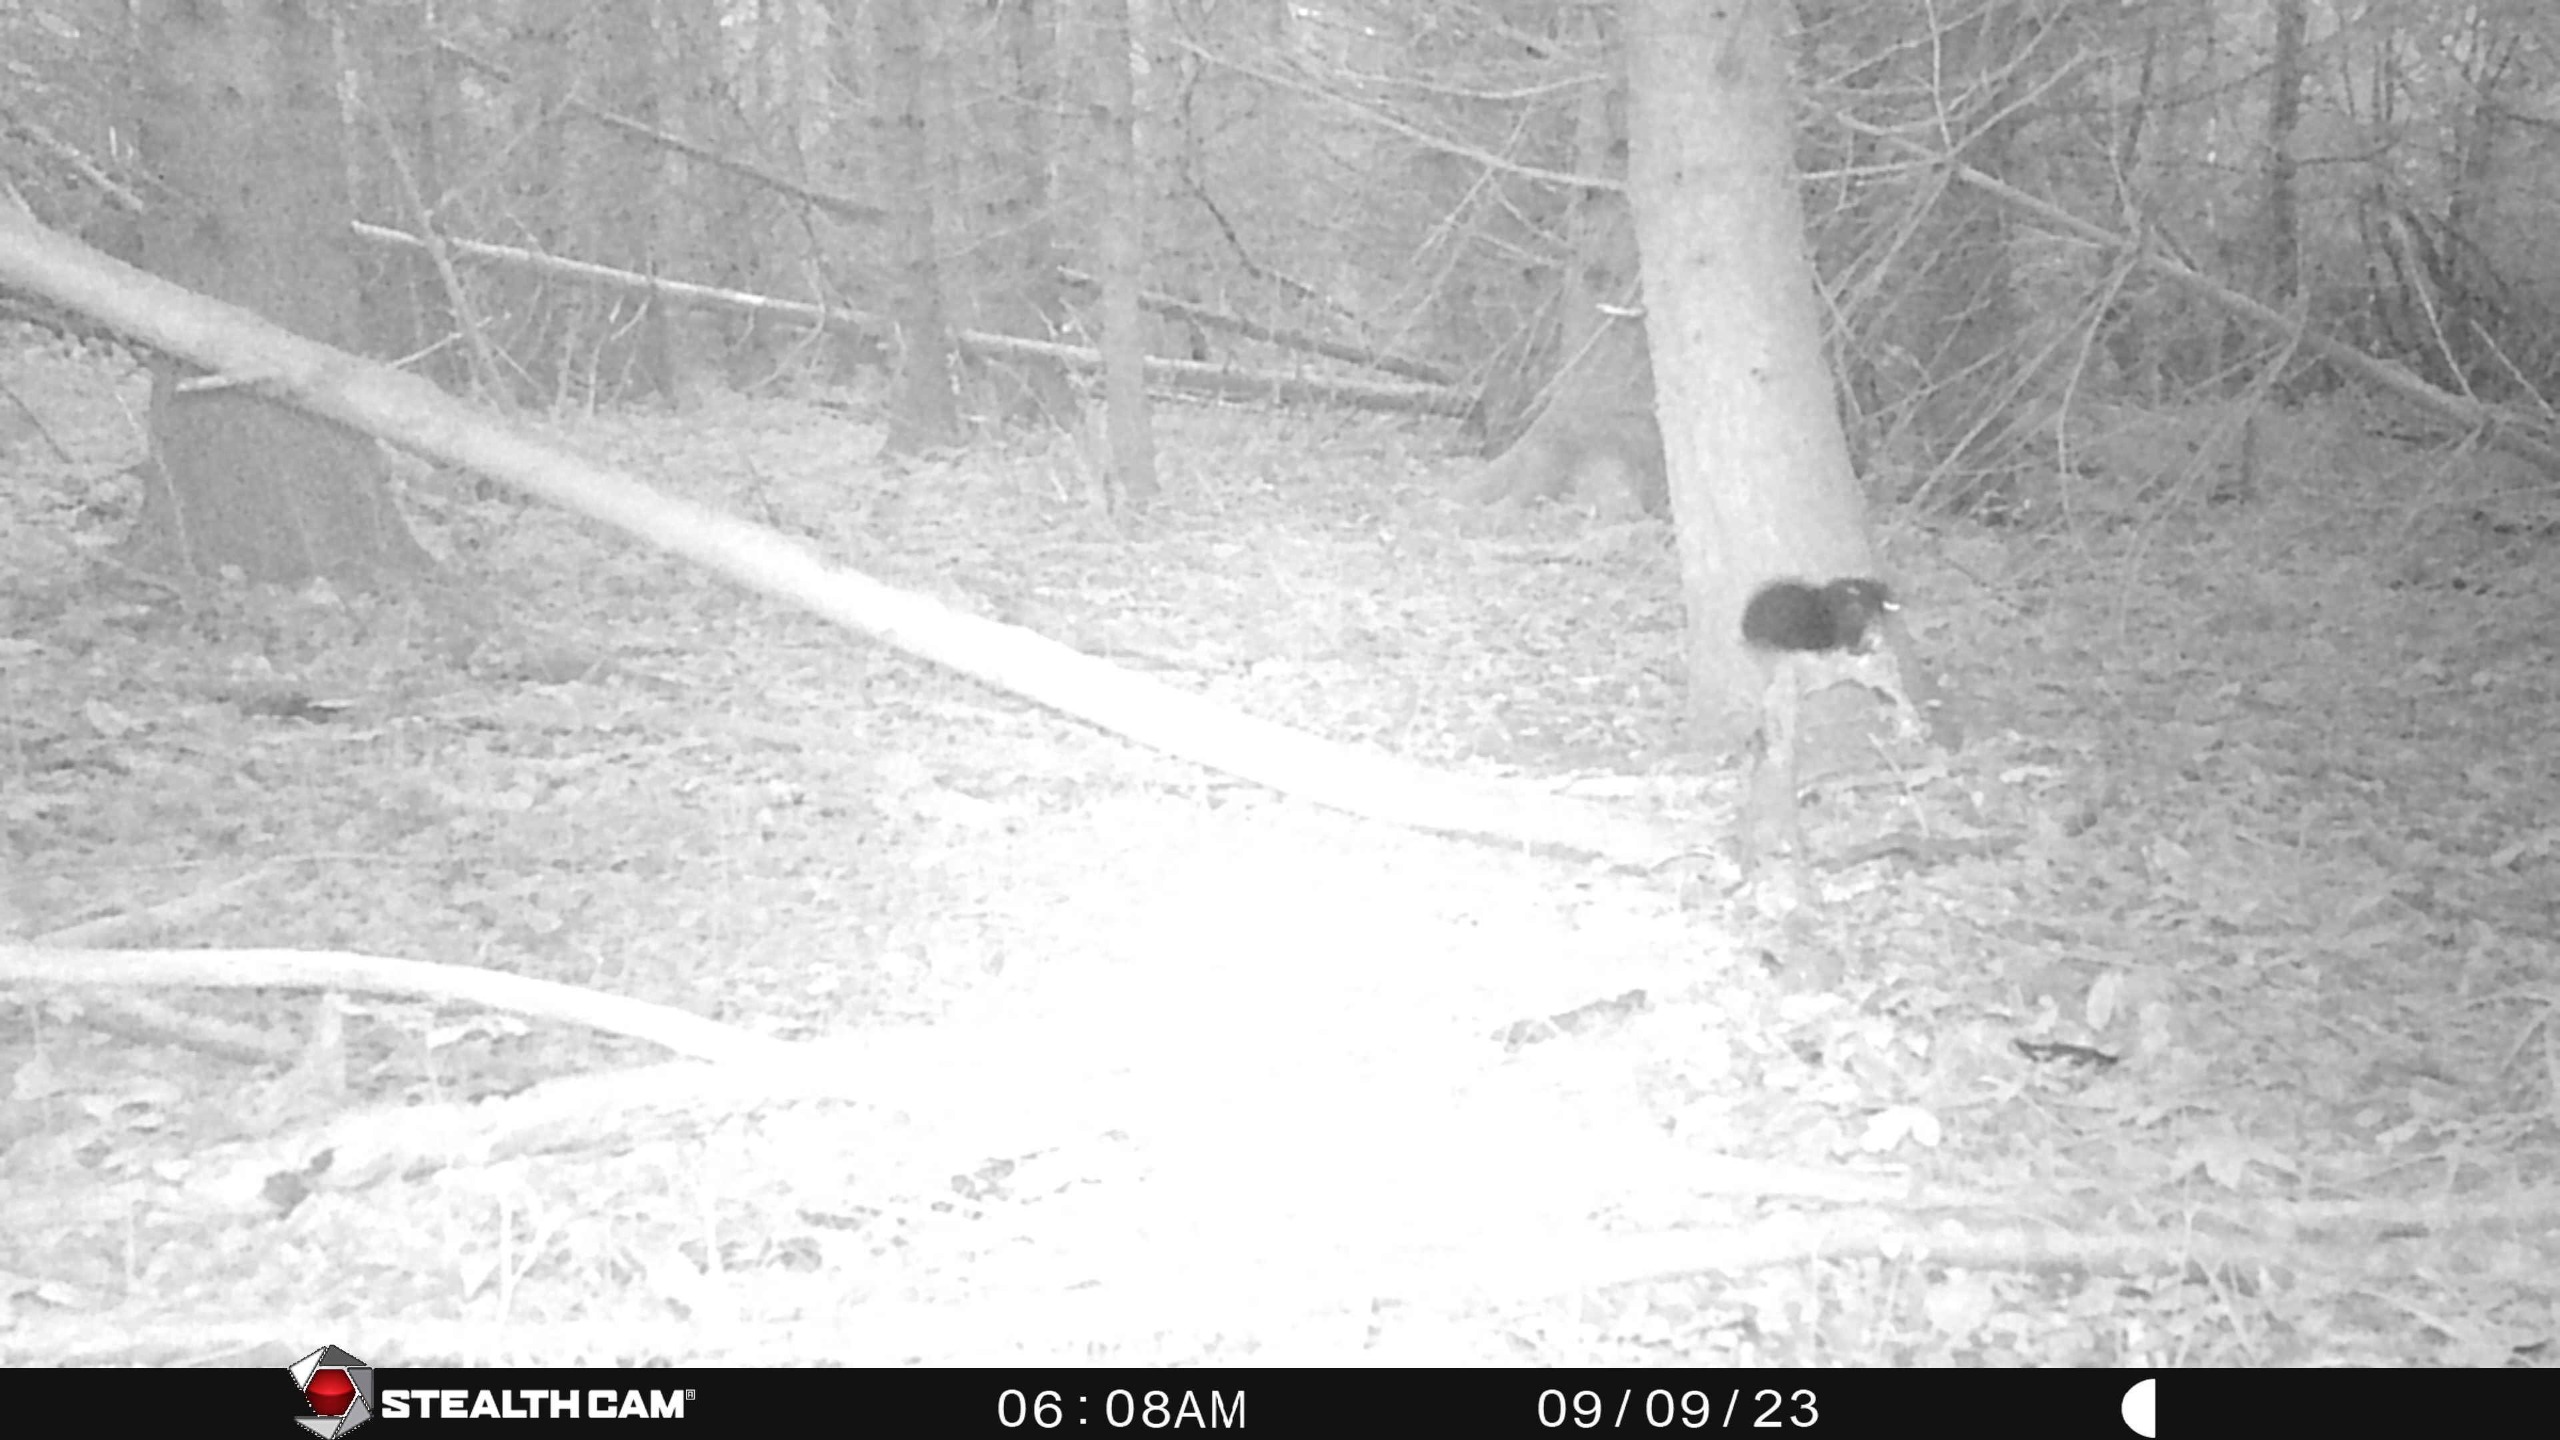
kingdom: Animalia
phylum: Chordata
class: Mammalia
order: Rodentia
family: Sciuridae
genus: Sciurus
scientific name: Sciurus vulgaris
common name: Egern
